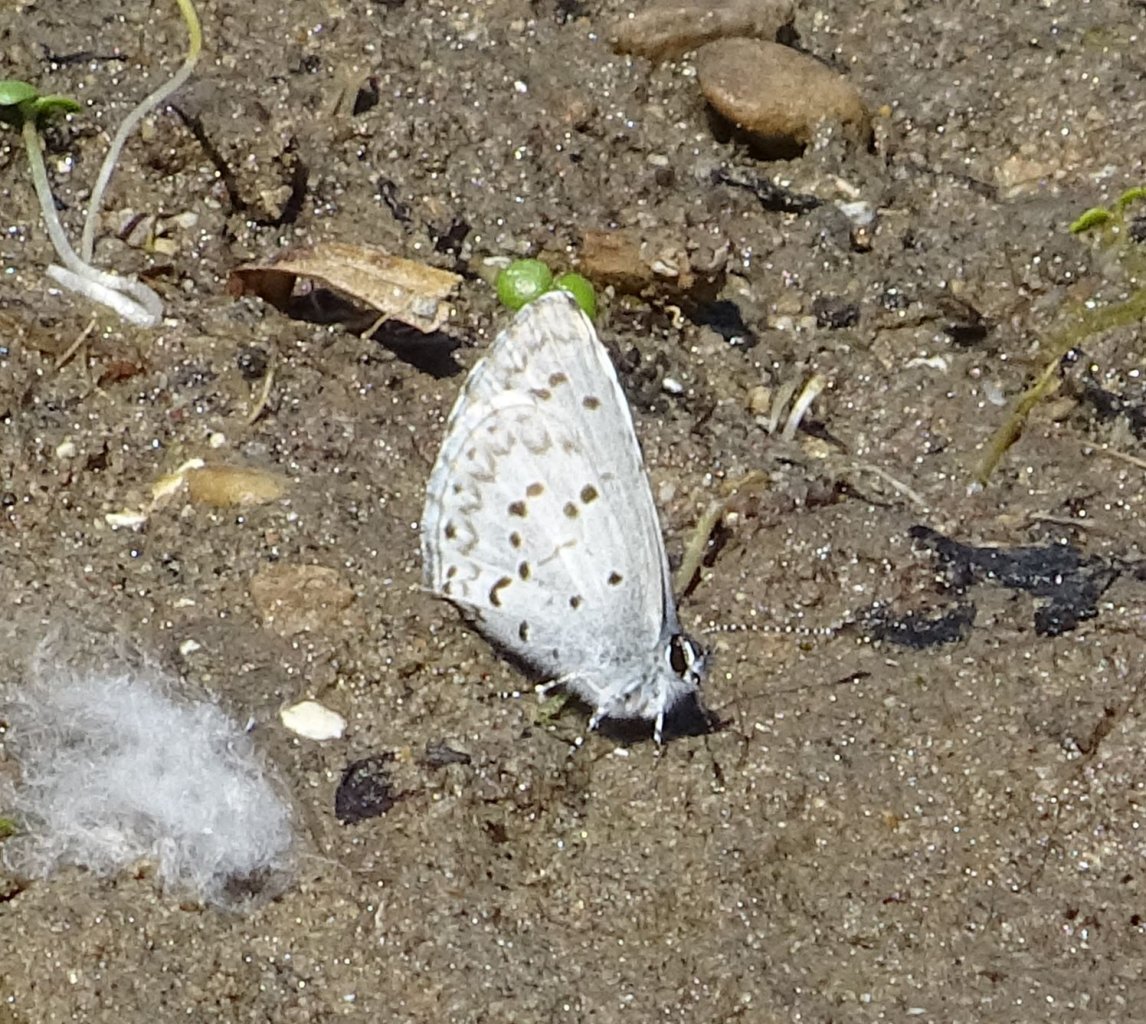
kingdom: Animalia
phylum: Arthropoda
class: Insecta
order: Lepidoptera
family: Lycaenidae
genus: Celastrina
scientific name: Celastrina lucia
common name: Northern Spring Azure
